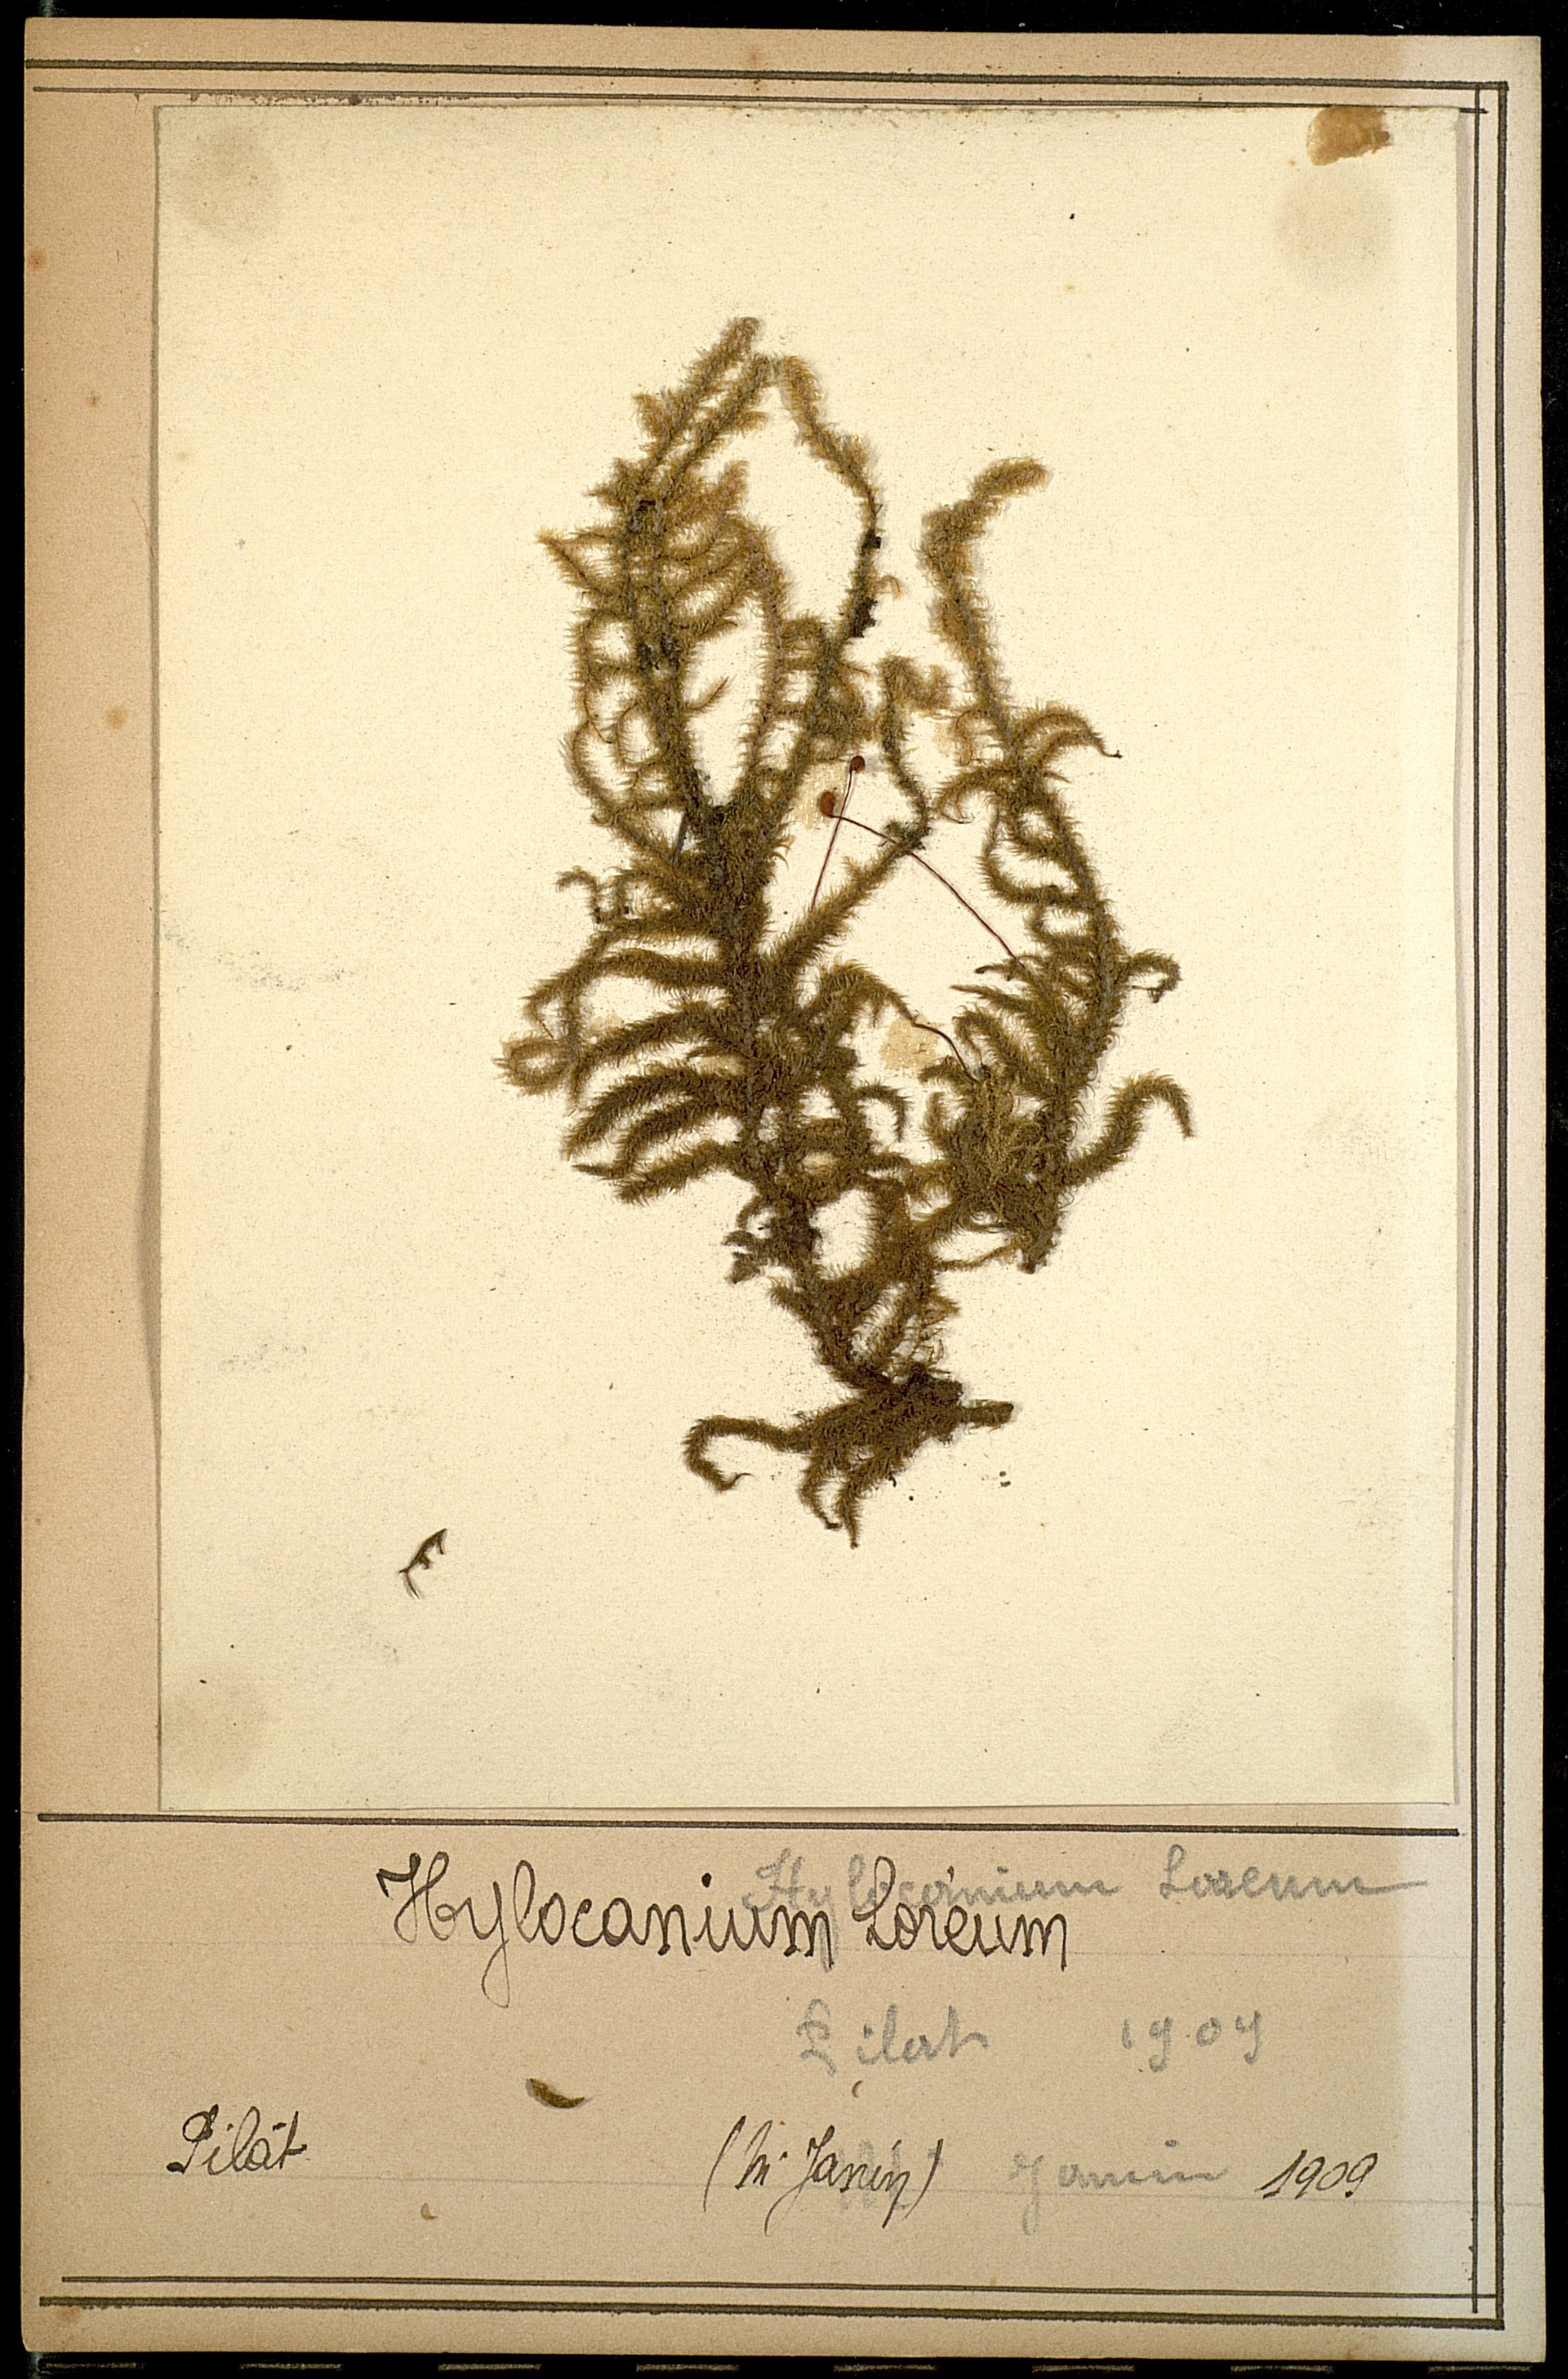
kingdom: Plantae
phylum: Bryophyta
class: Bryopsida
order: Hypnales
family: Hylocomiaceae
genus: Rhytidiadelphus
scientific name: Rhytidiadelphus loreus
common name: Lanky moss
